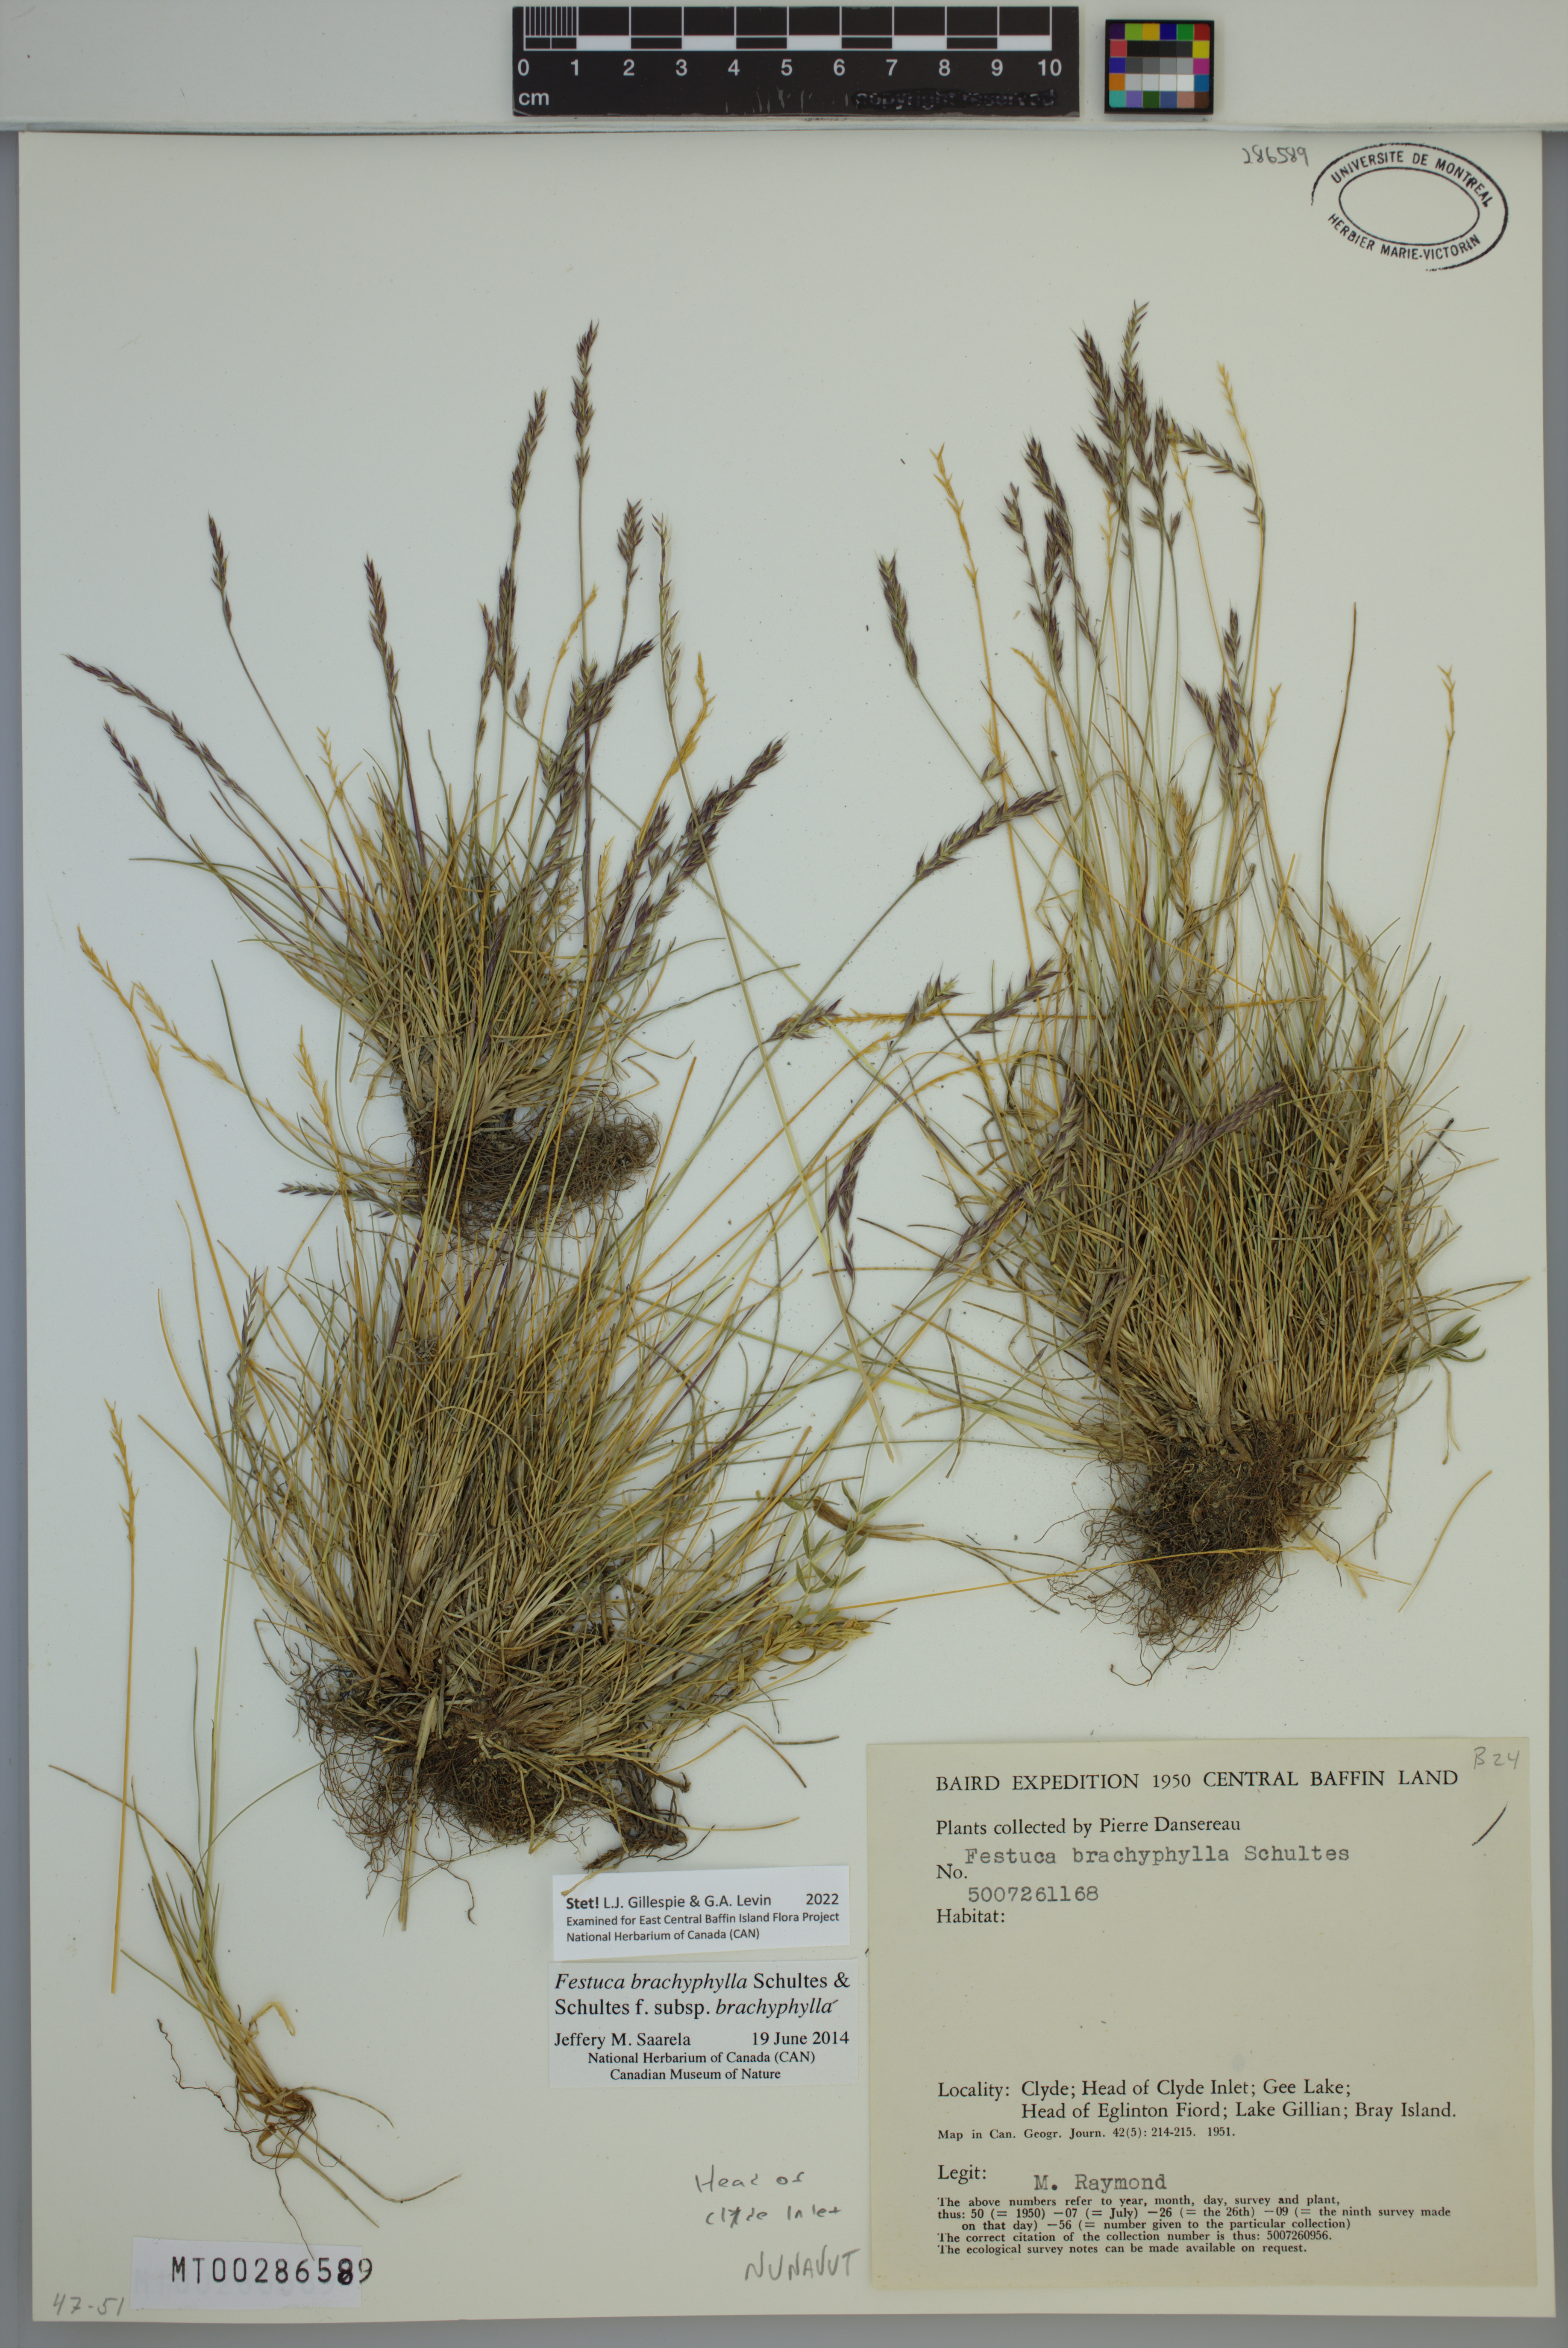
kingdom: Plantae
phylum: Tracheophyta
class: Liliopsida
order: Poales
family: Poaceae
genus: Festuca
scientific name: Festuca brachyphylla
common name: Alpine fescue
